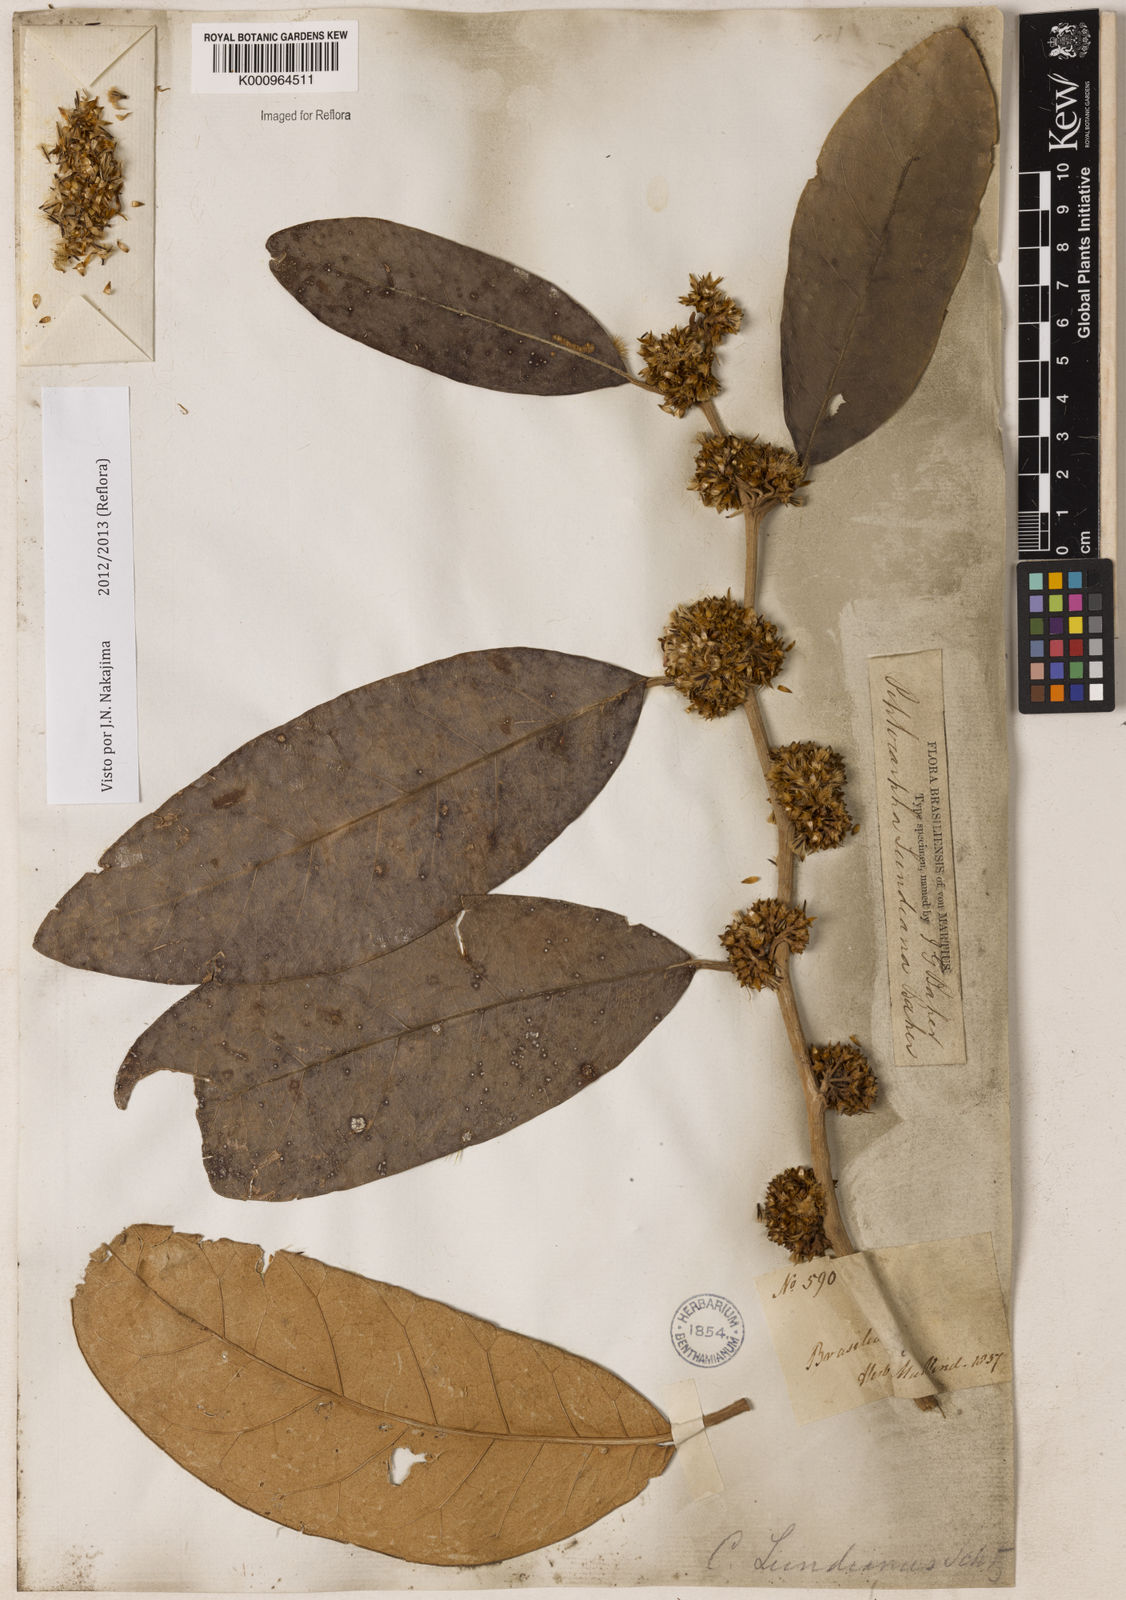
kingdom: Plantae
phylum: Tracheophyta
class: Magnoliopsida
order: Asterales
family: Asteraceae
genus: Piptocarpha
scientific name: Piptocarpha lundiana
